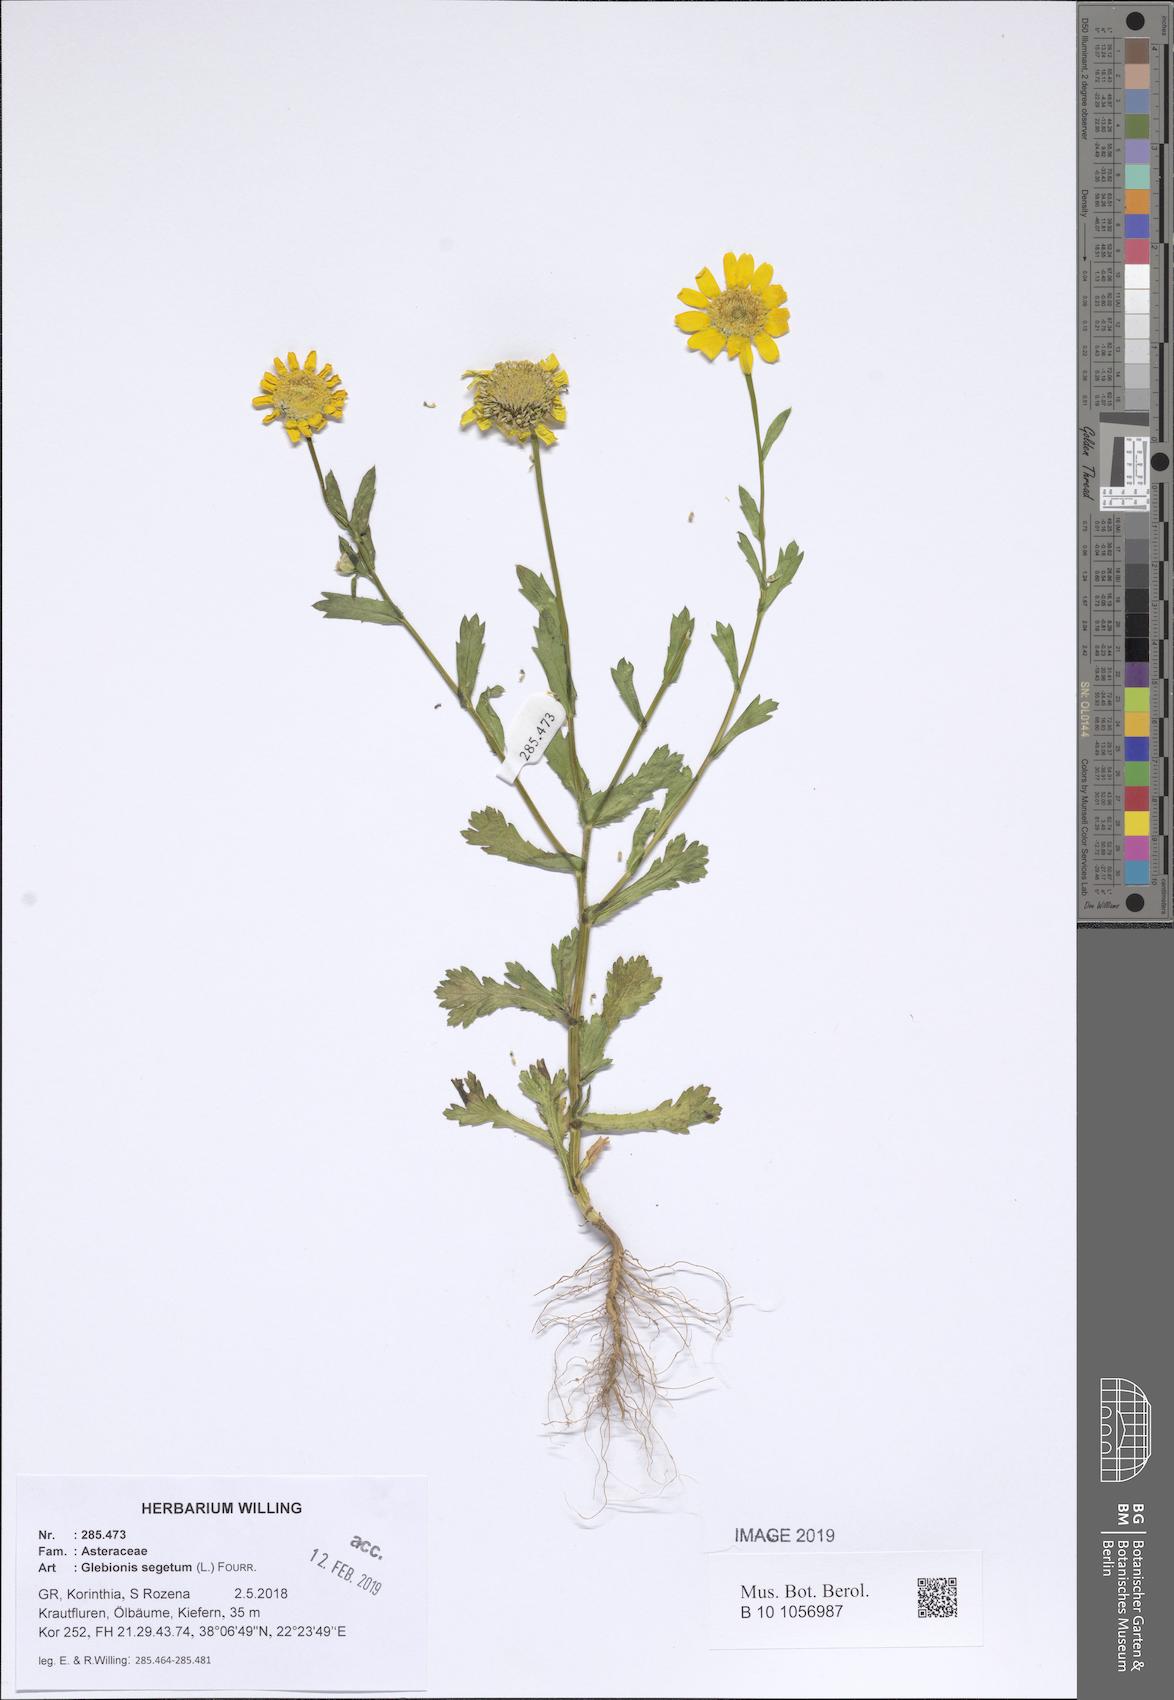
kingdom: Plantae
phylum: Tracheophyta
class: Magnoliopsida
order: Asterales
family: Asteraceae
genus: Glebionis
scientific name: Glebionis segetum
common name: Corndaisy
